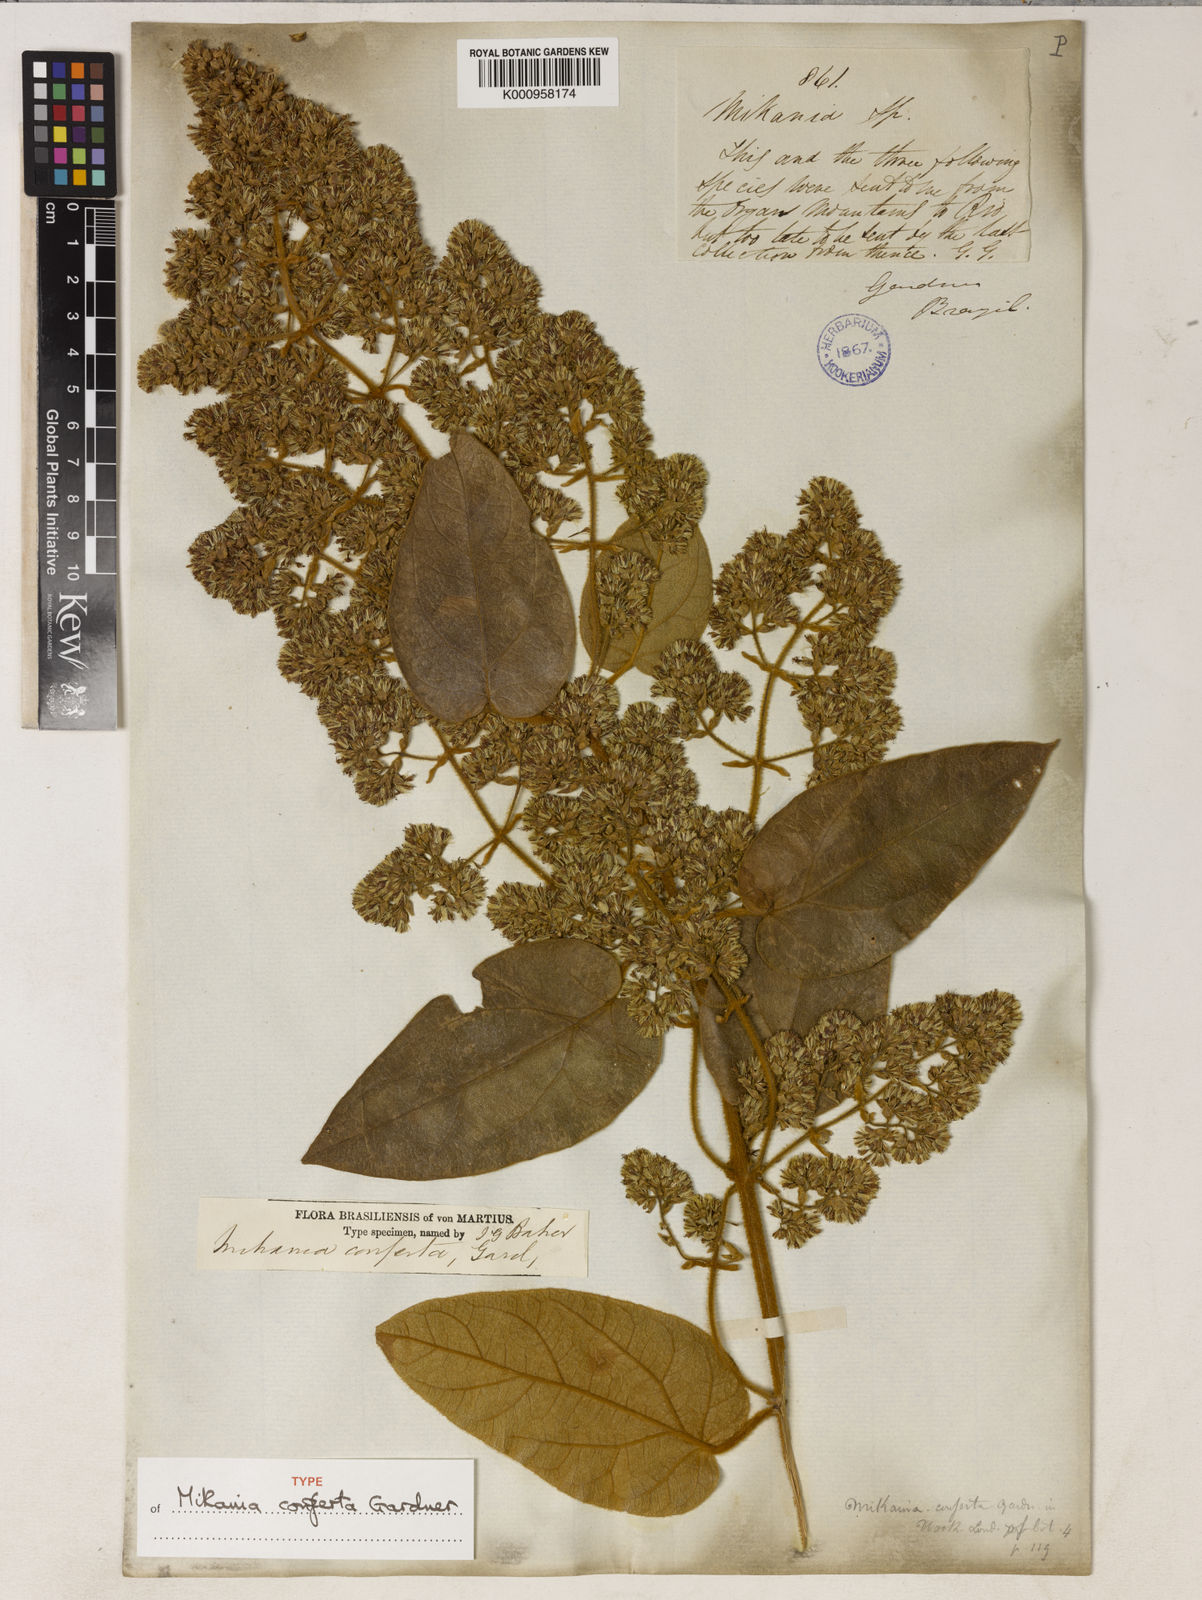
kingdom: Plantae
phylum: Tracheophyta
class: Magnoliopsida
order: Asterales
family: Asteraceae
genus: Mikania
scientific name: Mikania conferta
